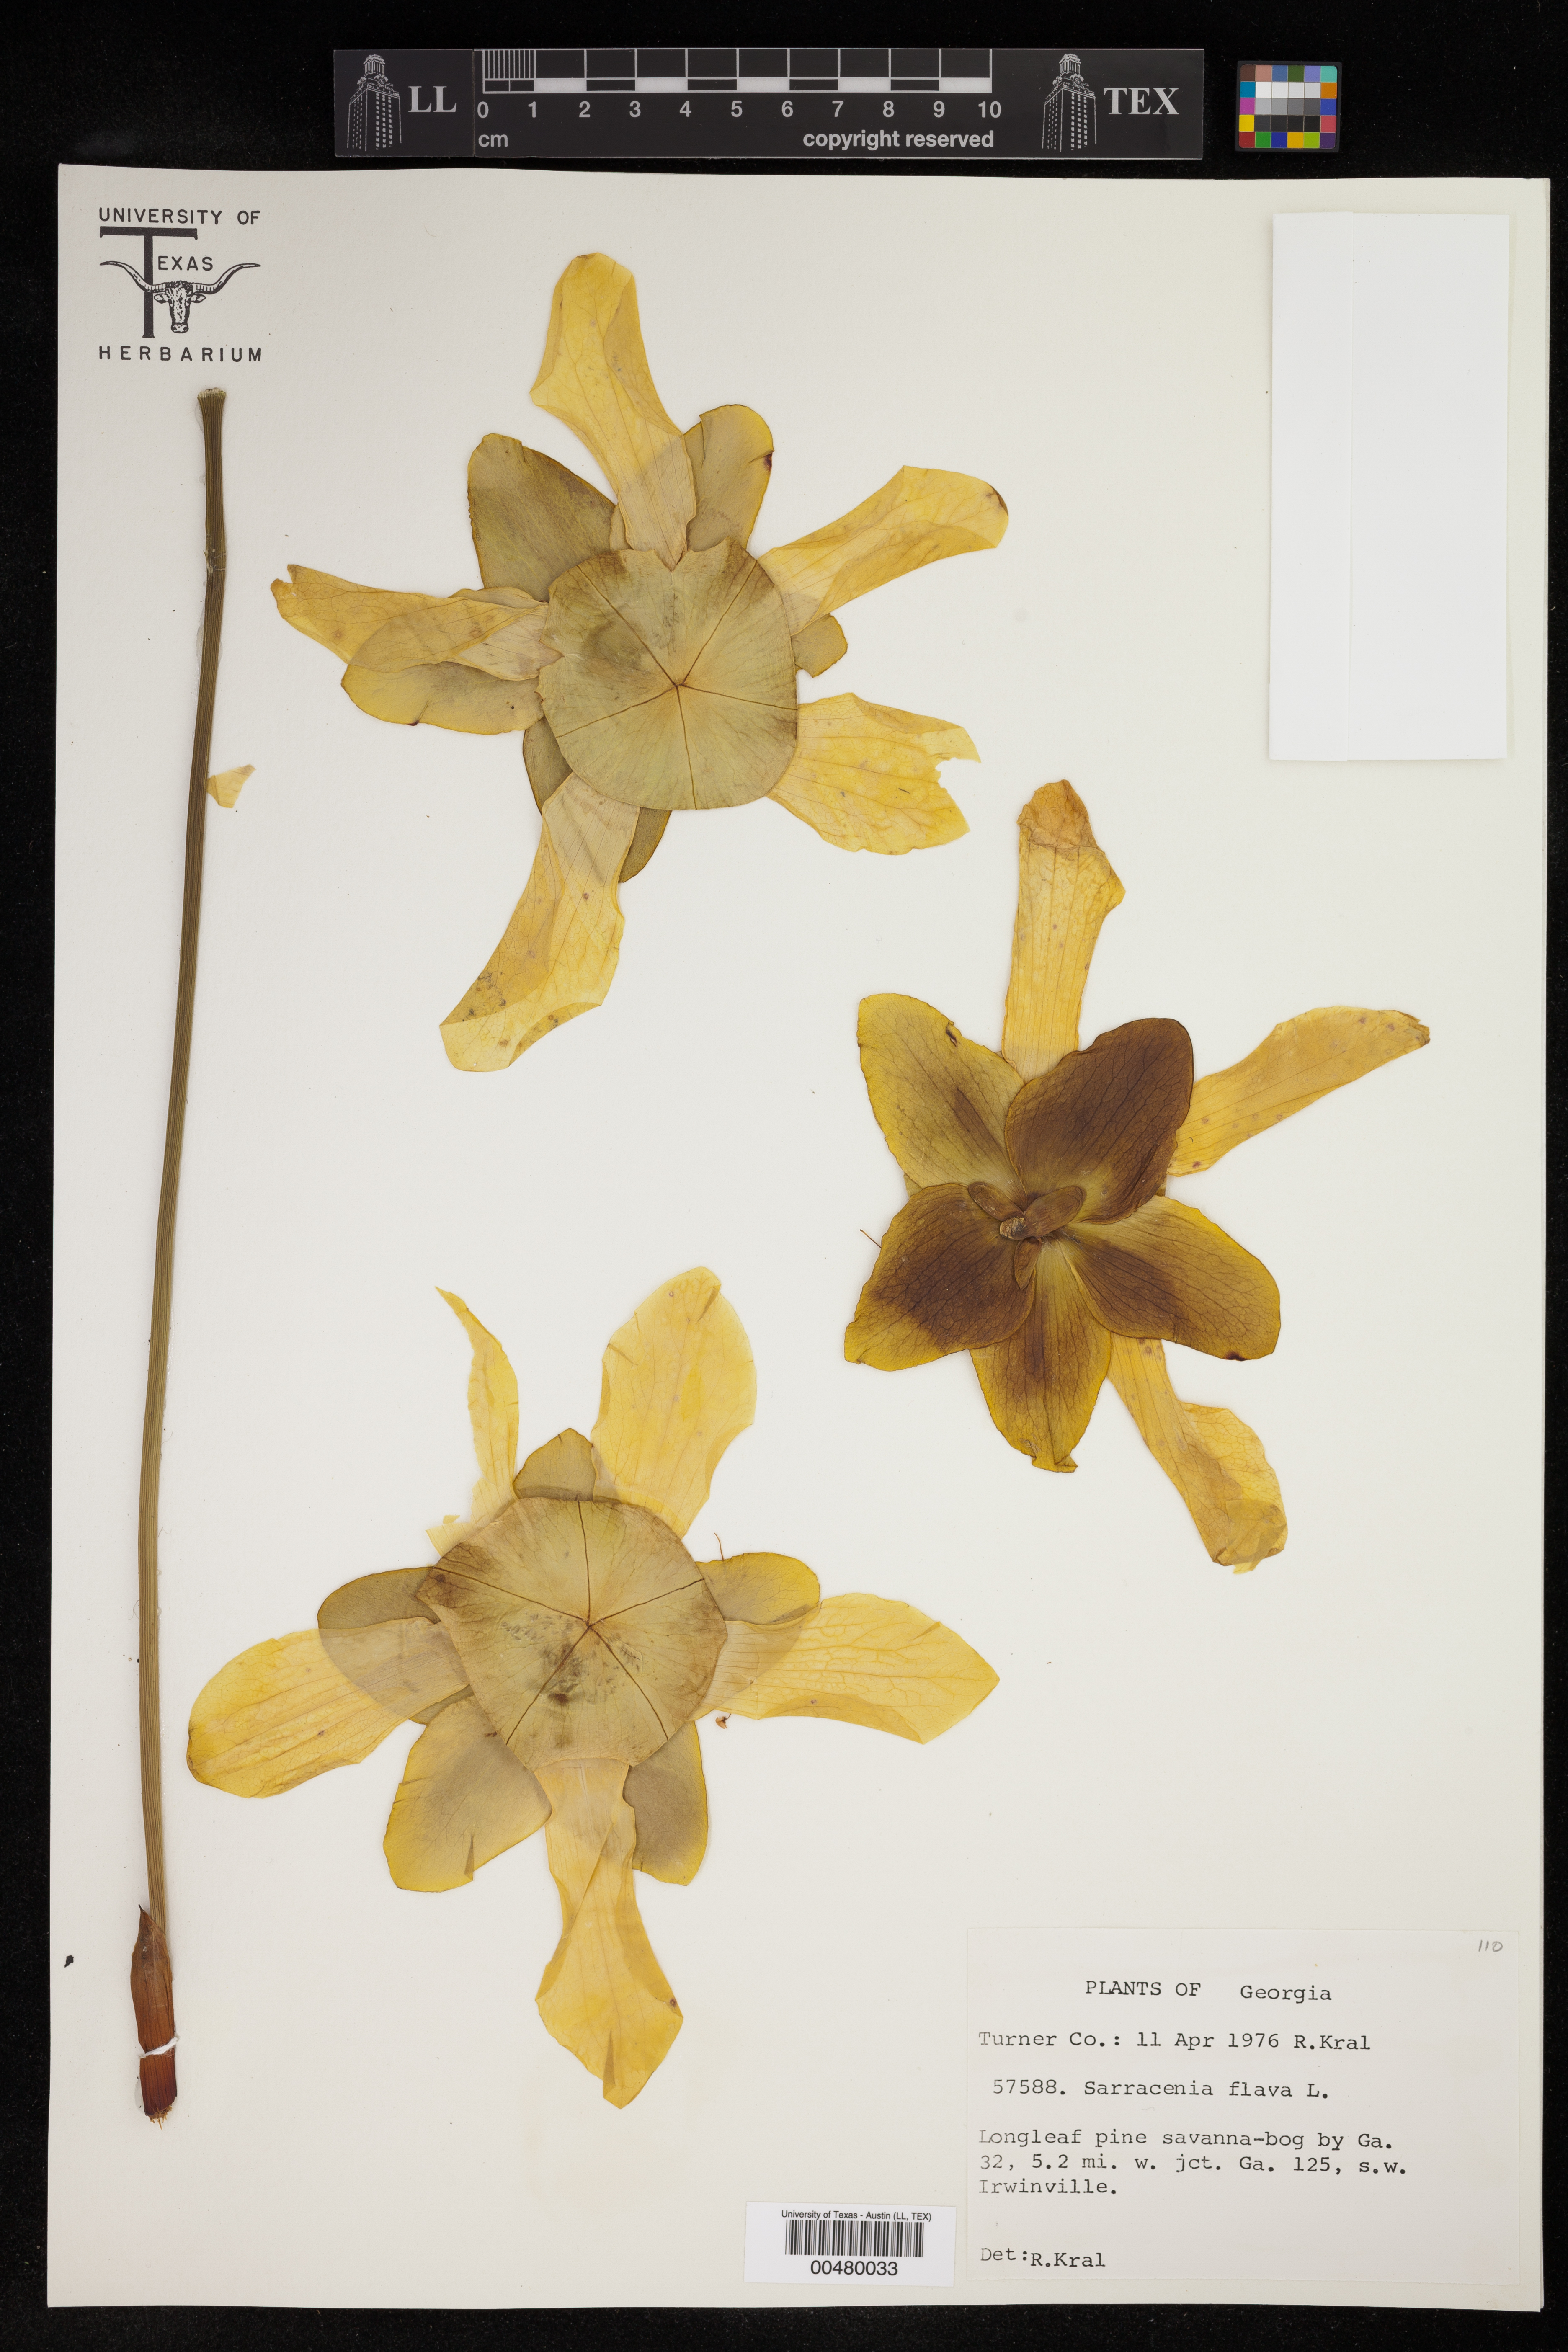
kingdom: Plantae
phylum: Tracheophyta
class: Magnoliopsida
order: Ericales
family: Sarraceniaceae
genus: Sarracenia
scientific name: Sarracenia flava
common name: Trumpets
